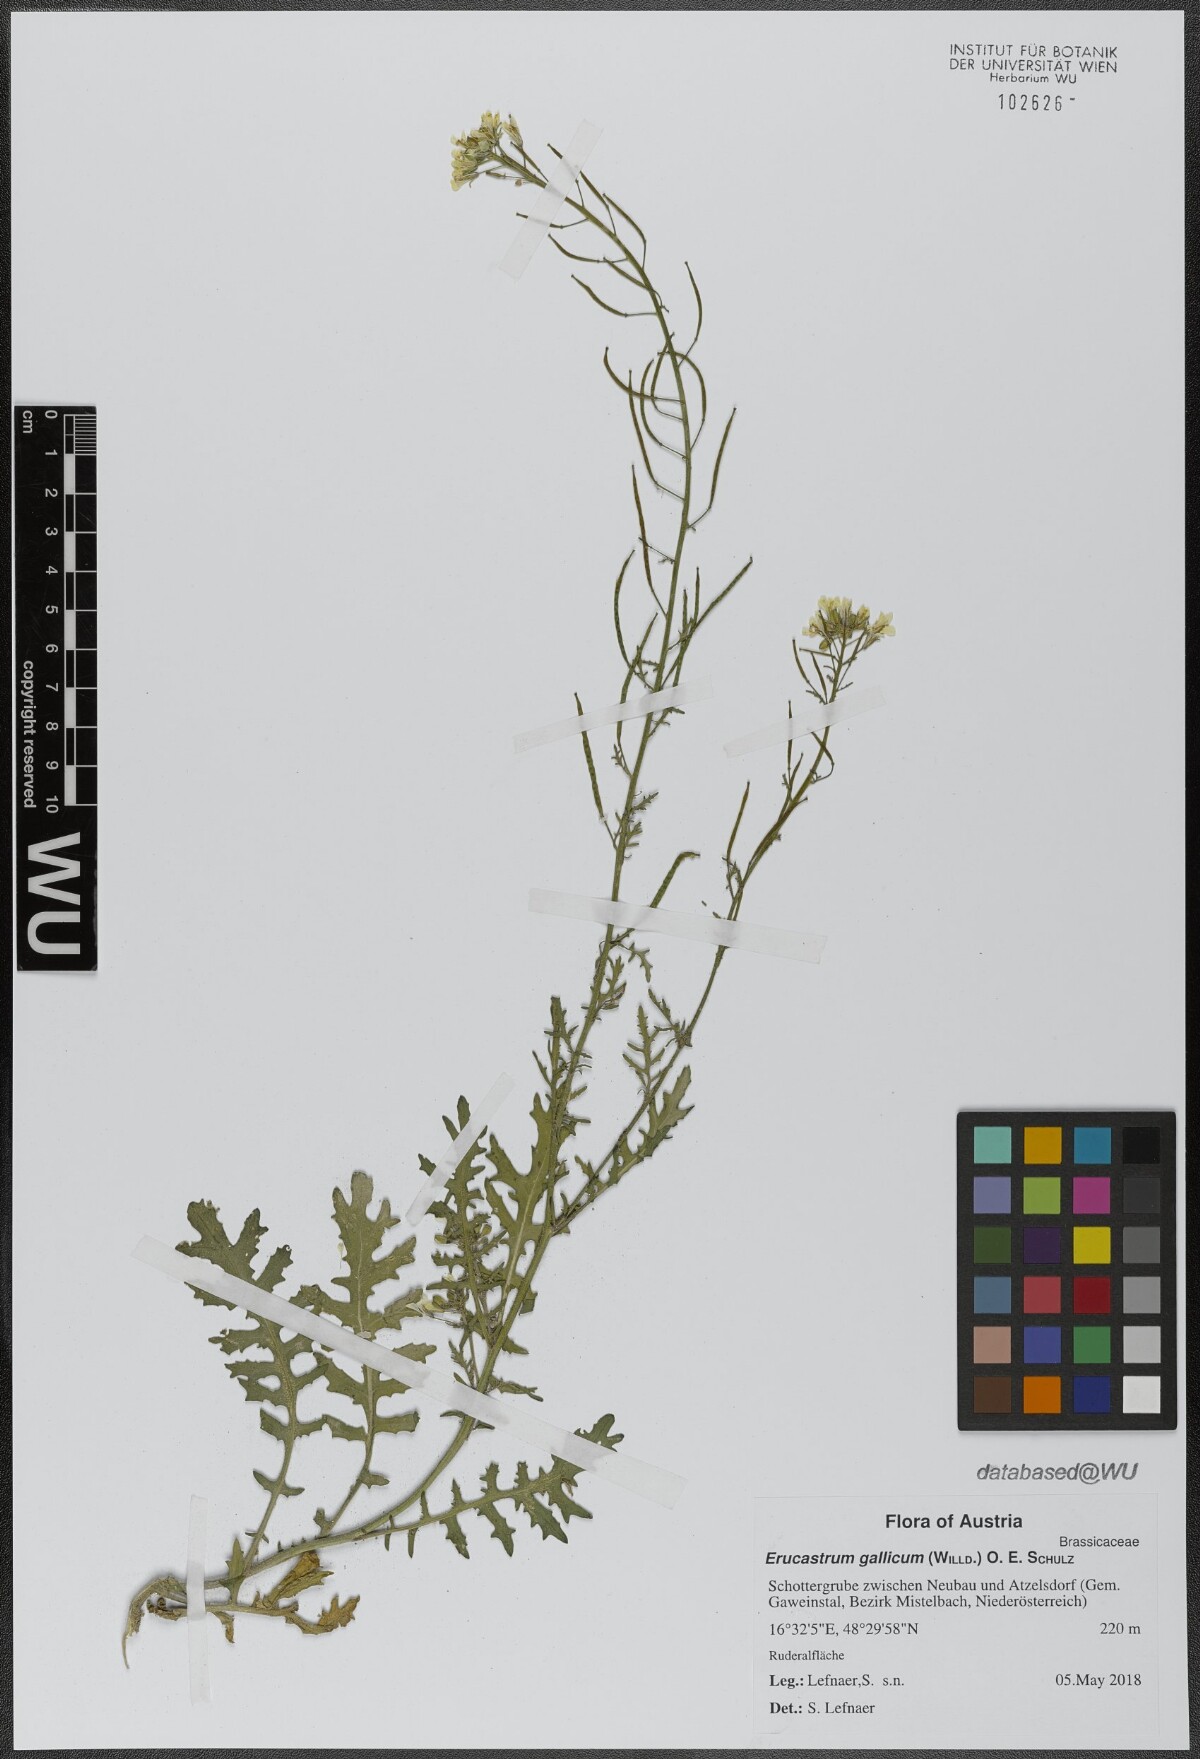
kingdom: Plantae
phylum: Tracheophyta
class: Magnoliopsida
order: Brassicales
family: Brassicaceae
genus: Erucastrum
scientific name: Erucastrum gallicum
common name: Hairy rocket
